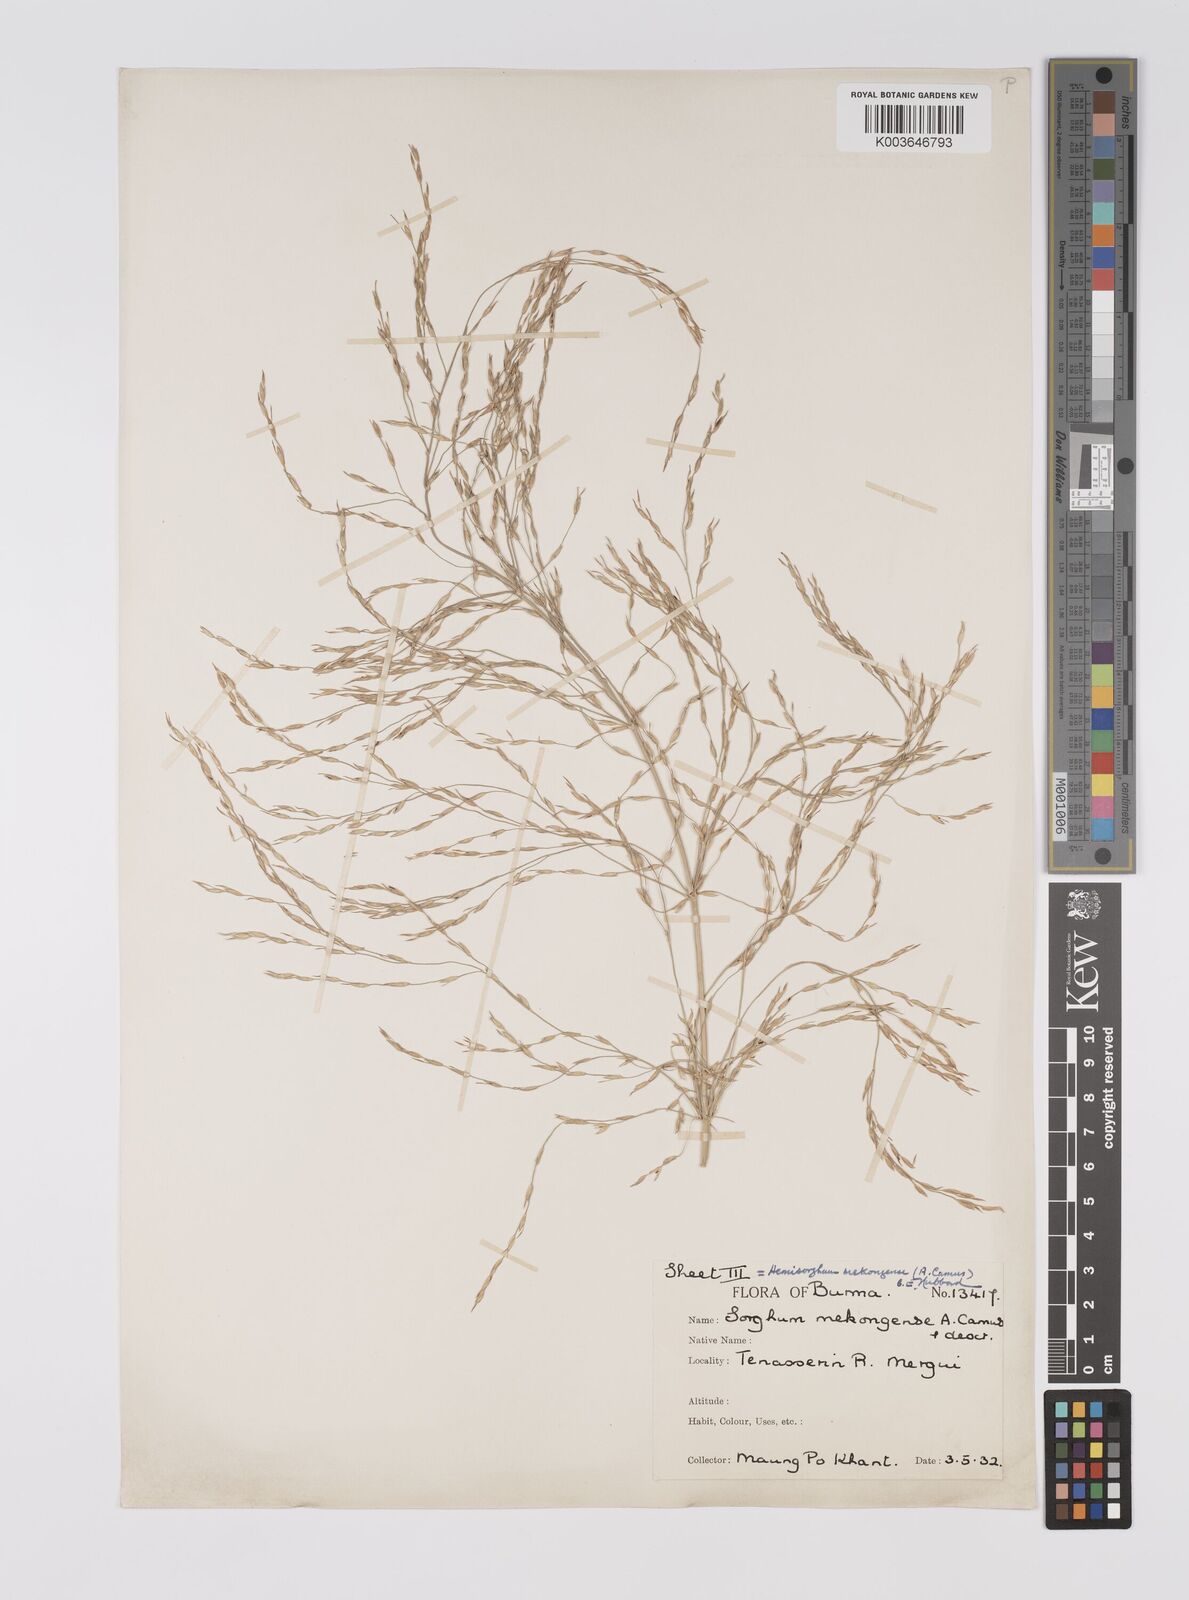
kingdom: Plantae
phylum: Tracheophyta
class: Liliopsida
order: Poales
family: Poaceae
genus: Hemisorghum
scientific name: Hemisorghum mekongense
